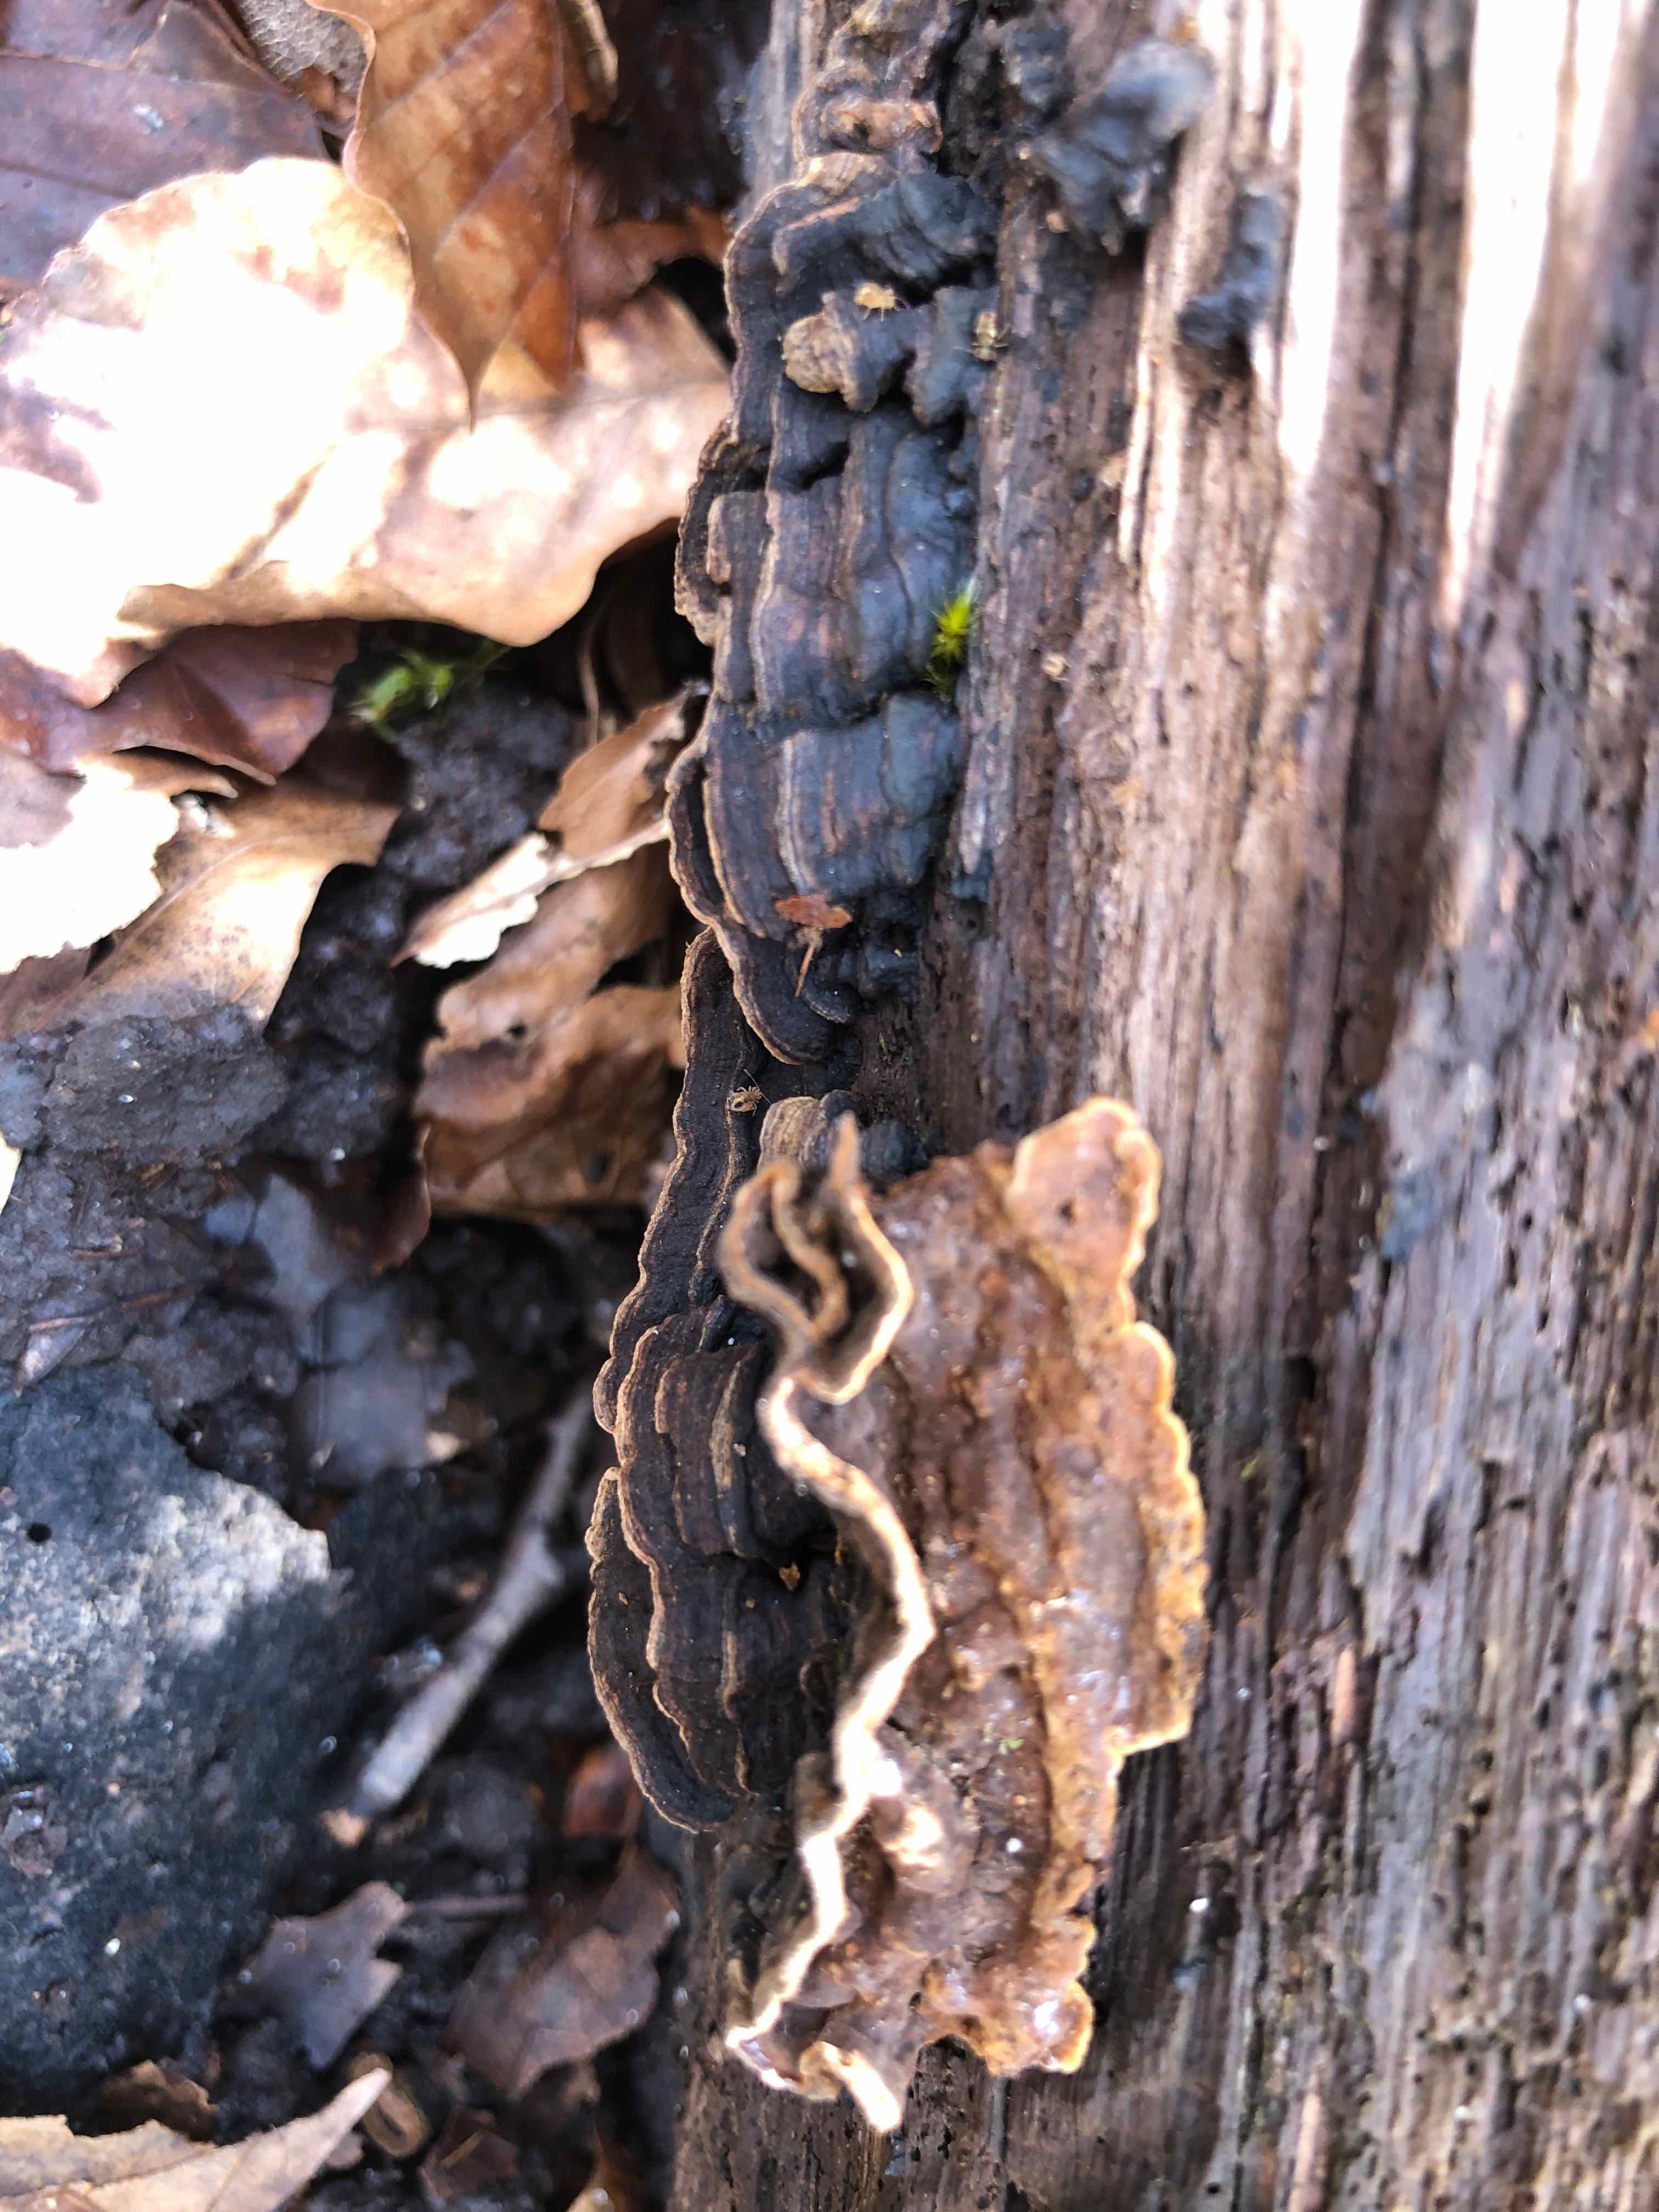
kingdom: Fungi
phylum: Basidiomycota
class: Agaricomycetes
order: Hymenochaetales
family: Hymenochaetaceae
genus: Hymenochaete
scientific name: Hymenochaete rubiginosa
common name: stiv ruslædersvamp
